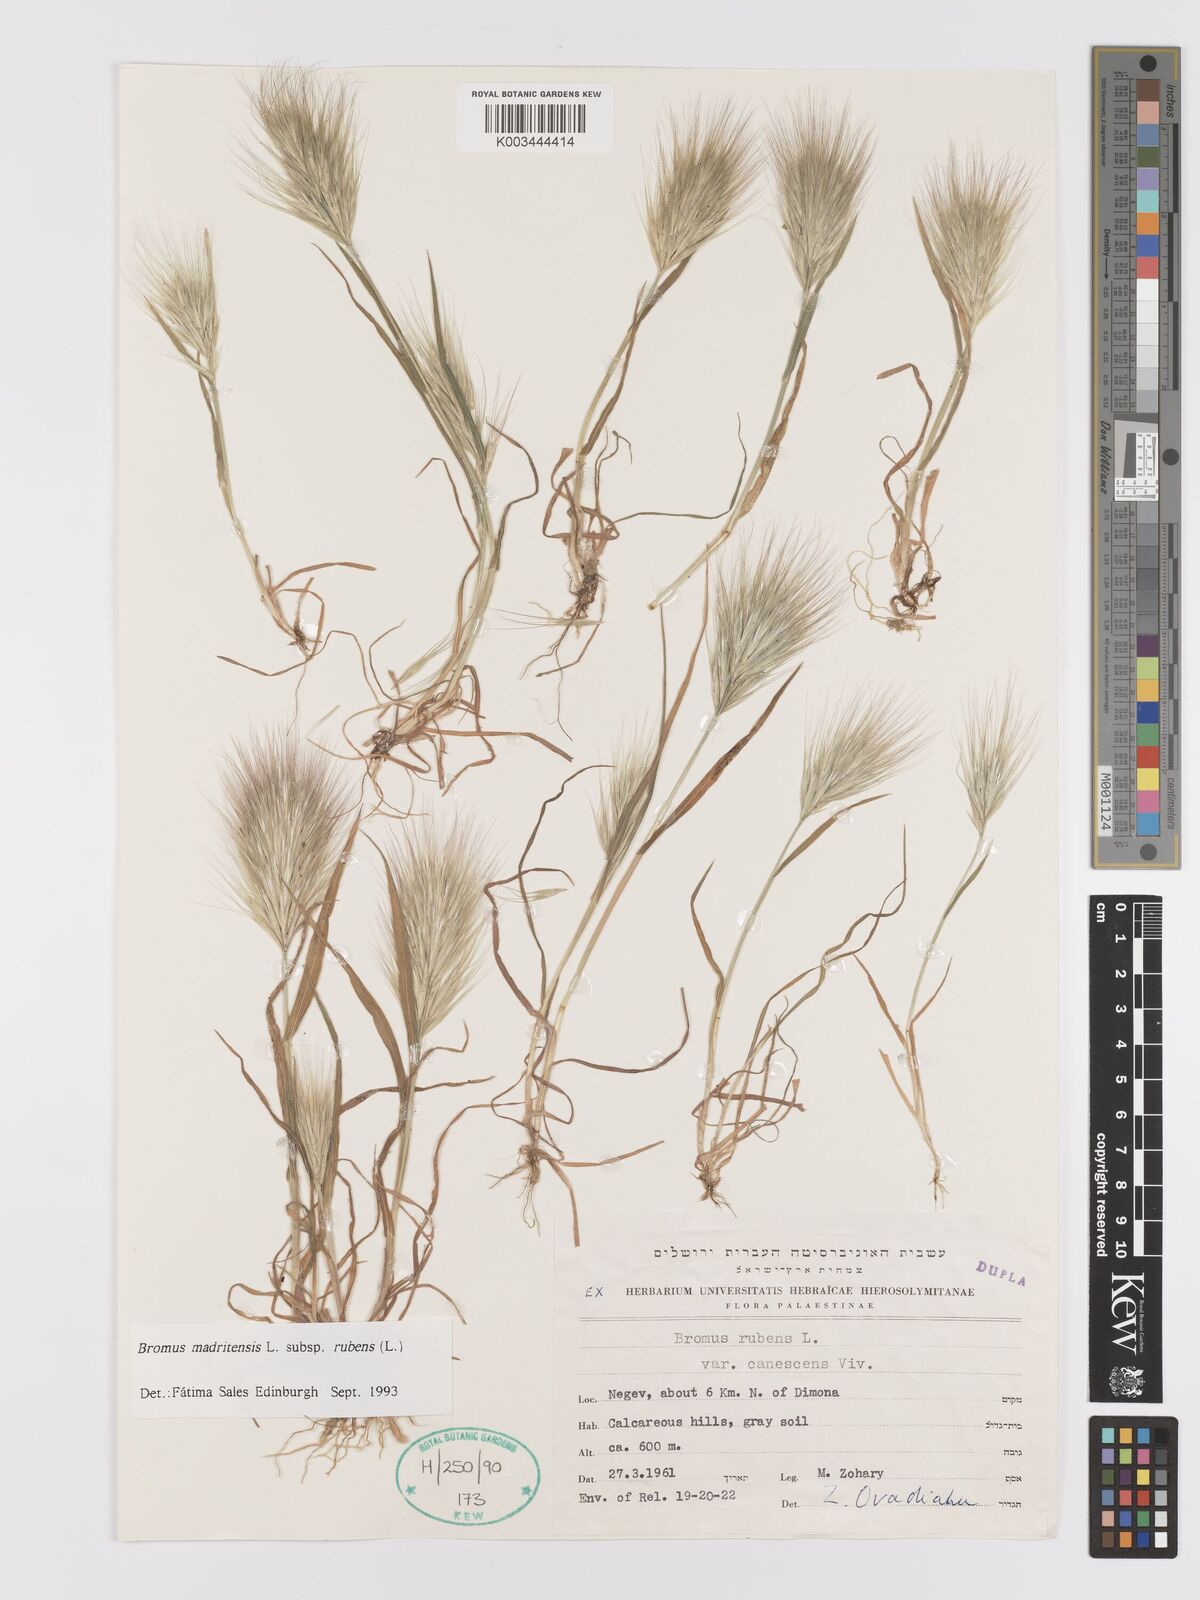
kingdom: Plantae
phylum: Tracheophyta
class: Liliopsida
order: Poales
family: Poaceae
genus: Bromus
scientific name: Bromus rubens
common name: Red brome
